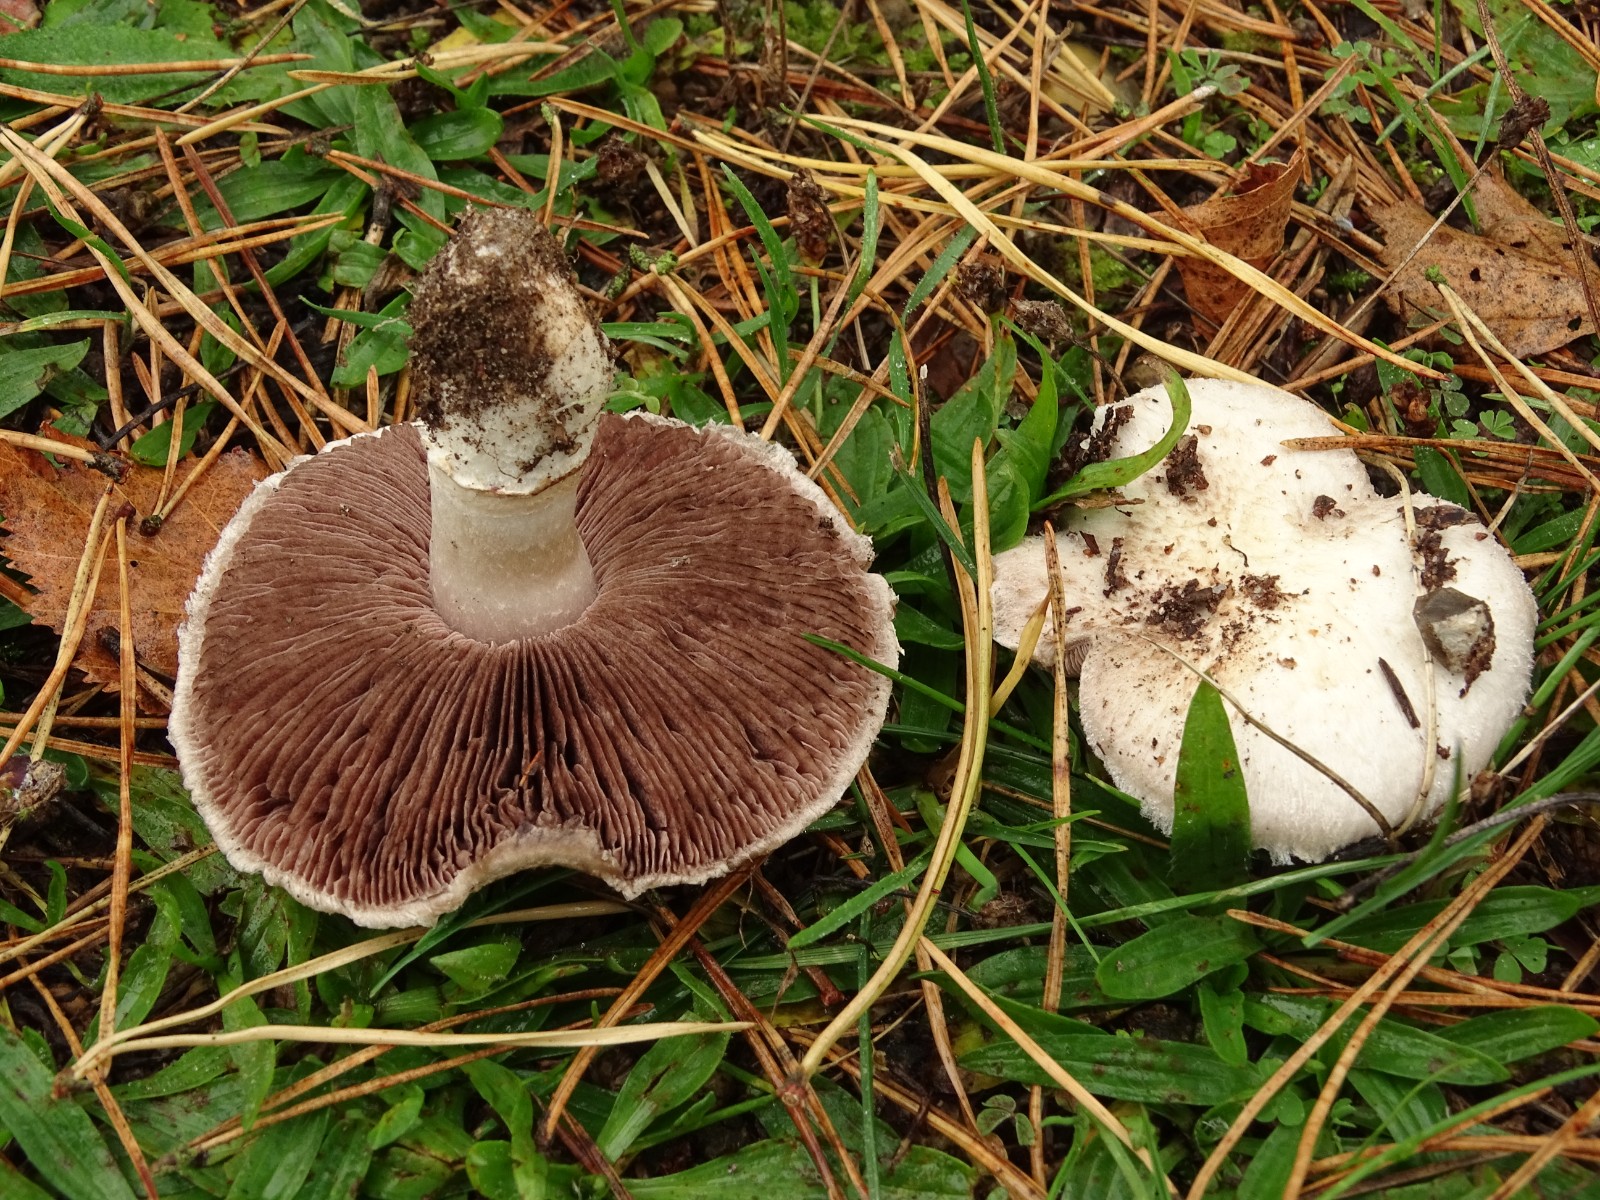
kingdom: Fungi
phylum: Basidiomycota
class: Agaricomycetes
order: Agaricales
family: Agaricaceae
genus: Agaricus
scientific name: Agaricus campestris
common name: mark-champignon
